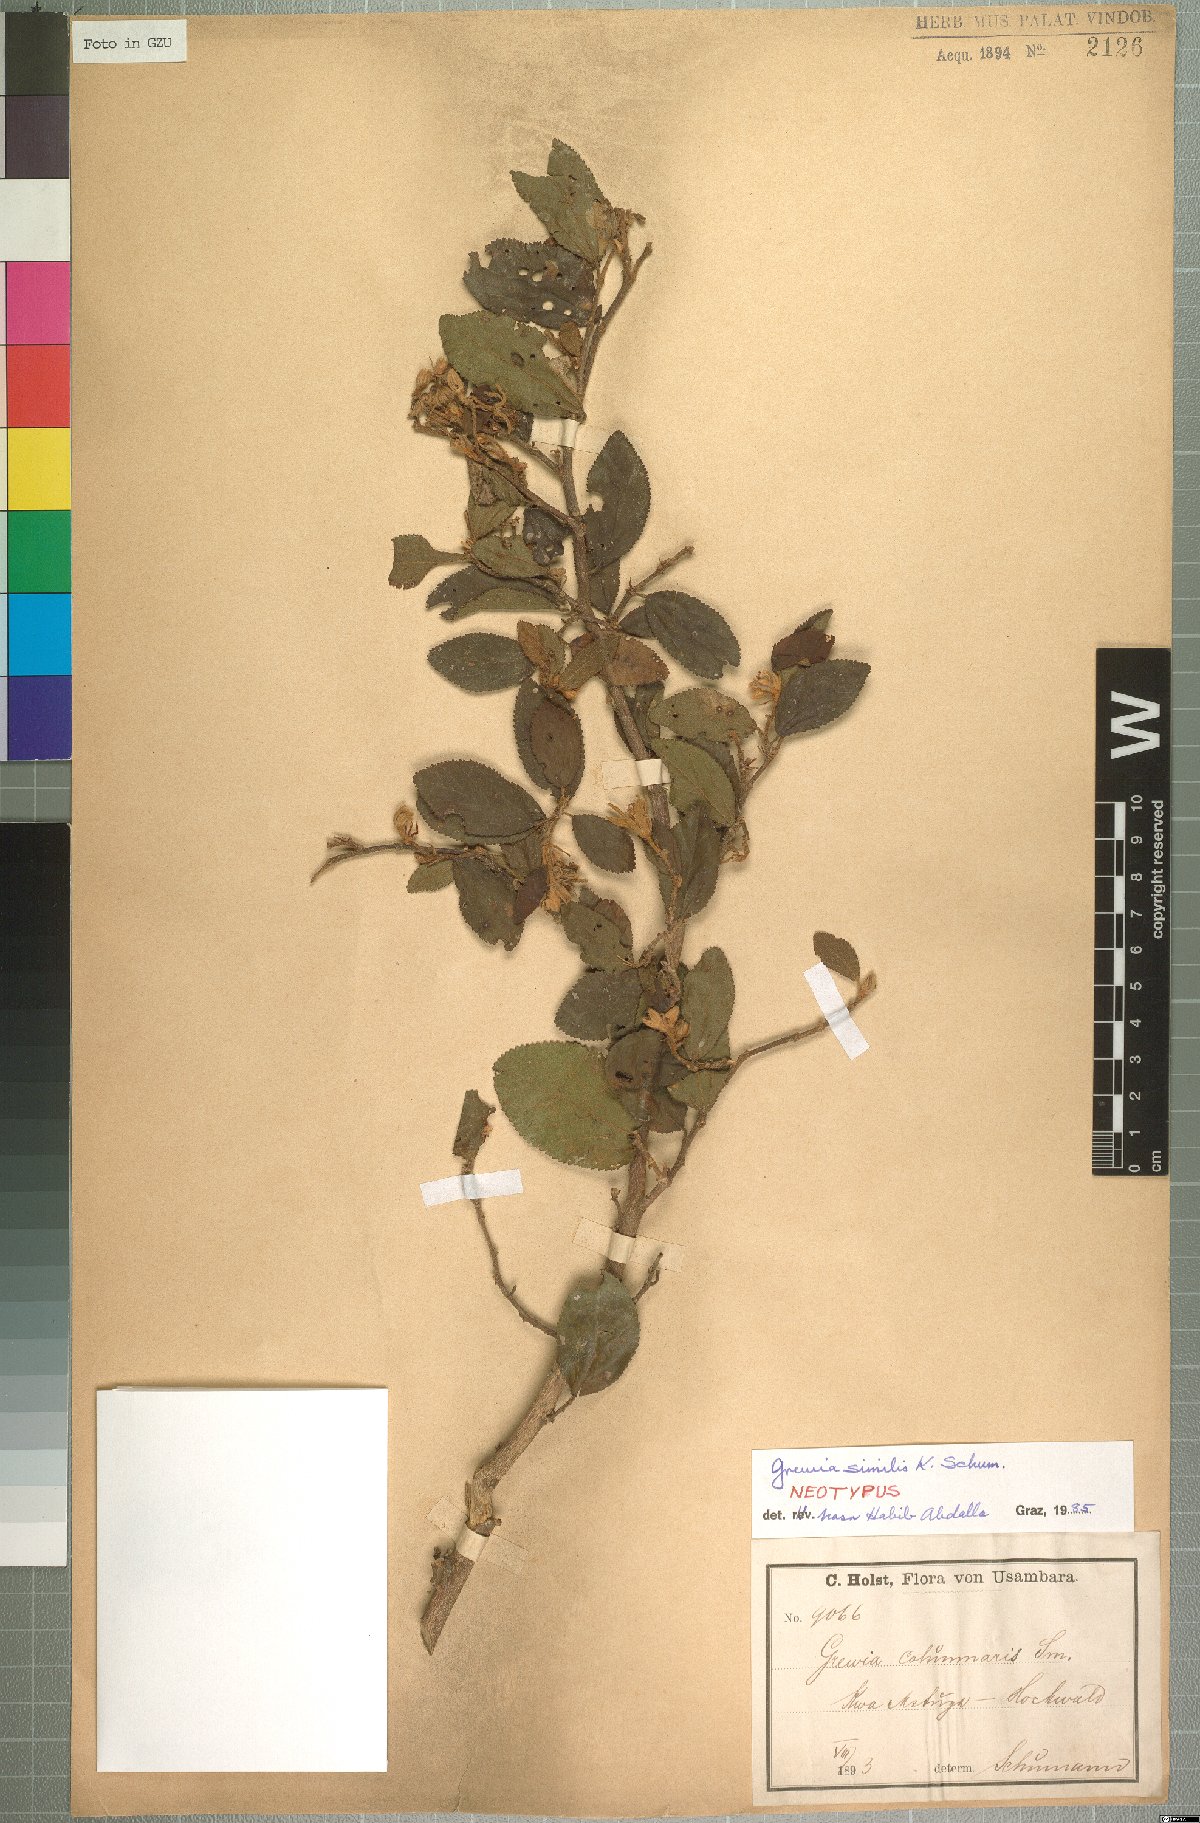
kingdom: Plantae
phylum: Tracheophyta
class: Magnoliopsida
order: Malvales
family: Malvaceae
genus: Grewia
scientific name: Grewia similis
